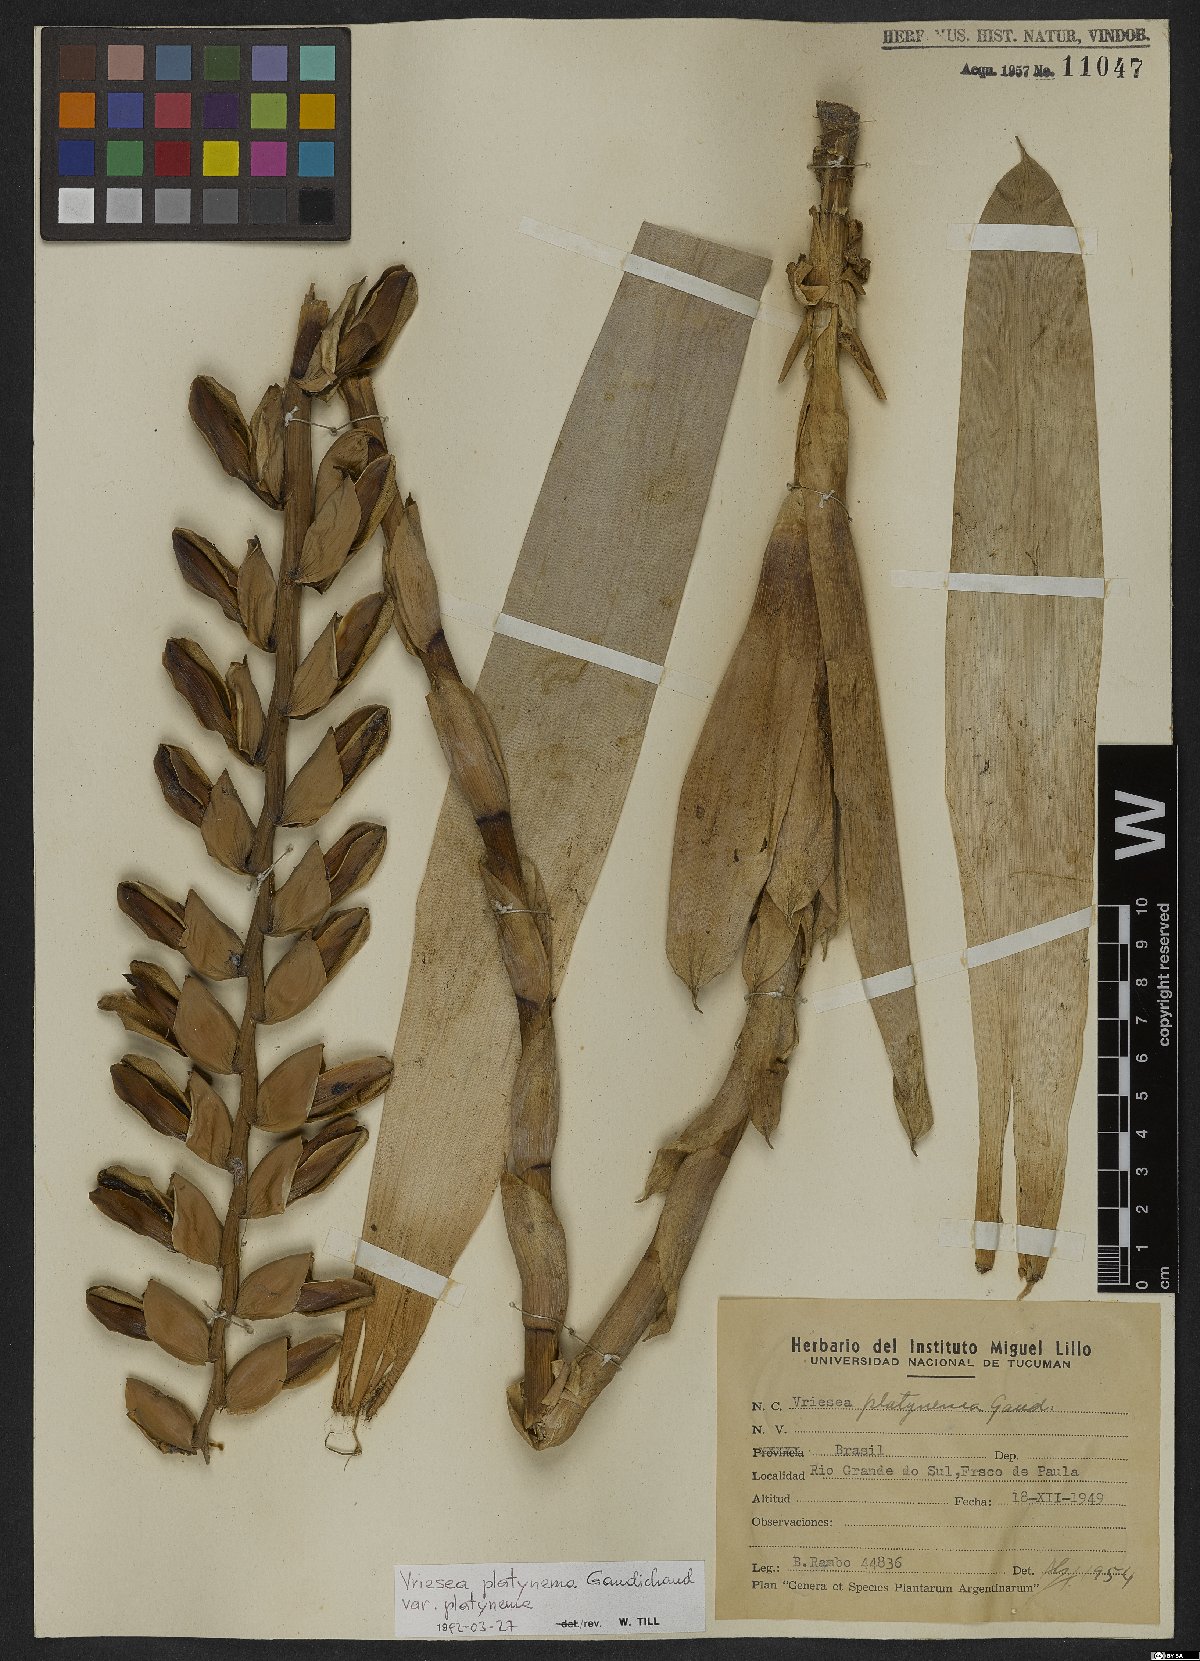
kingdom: Plantae
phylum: Tracheophyta
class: Liliopsida
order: Poales
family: Bromeliaceae
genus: Vriesea
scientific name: Vriesea platynema
